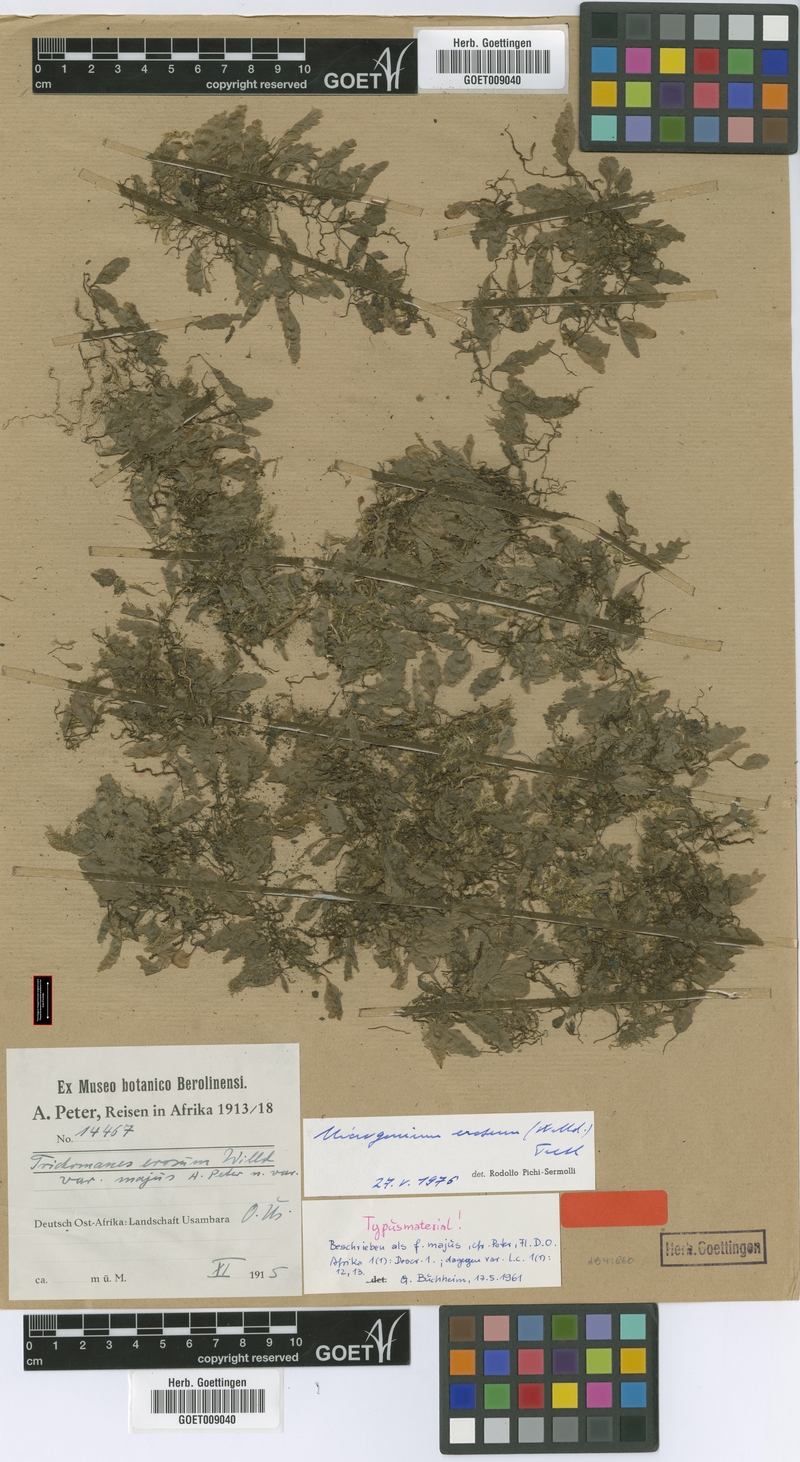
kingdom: Plantae
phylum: Tracheophyta
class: Polypodiopsida
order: Hymenophyllales
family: Hymenophyllaceae
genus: Didymoglossum
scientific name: Didymoglossum erosum
